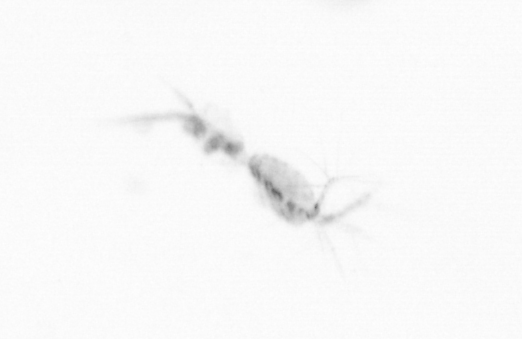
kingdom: Animalia
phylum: Arthropoda
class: Copepoda
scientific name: Copepoda
